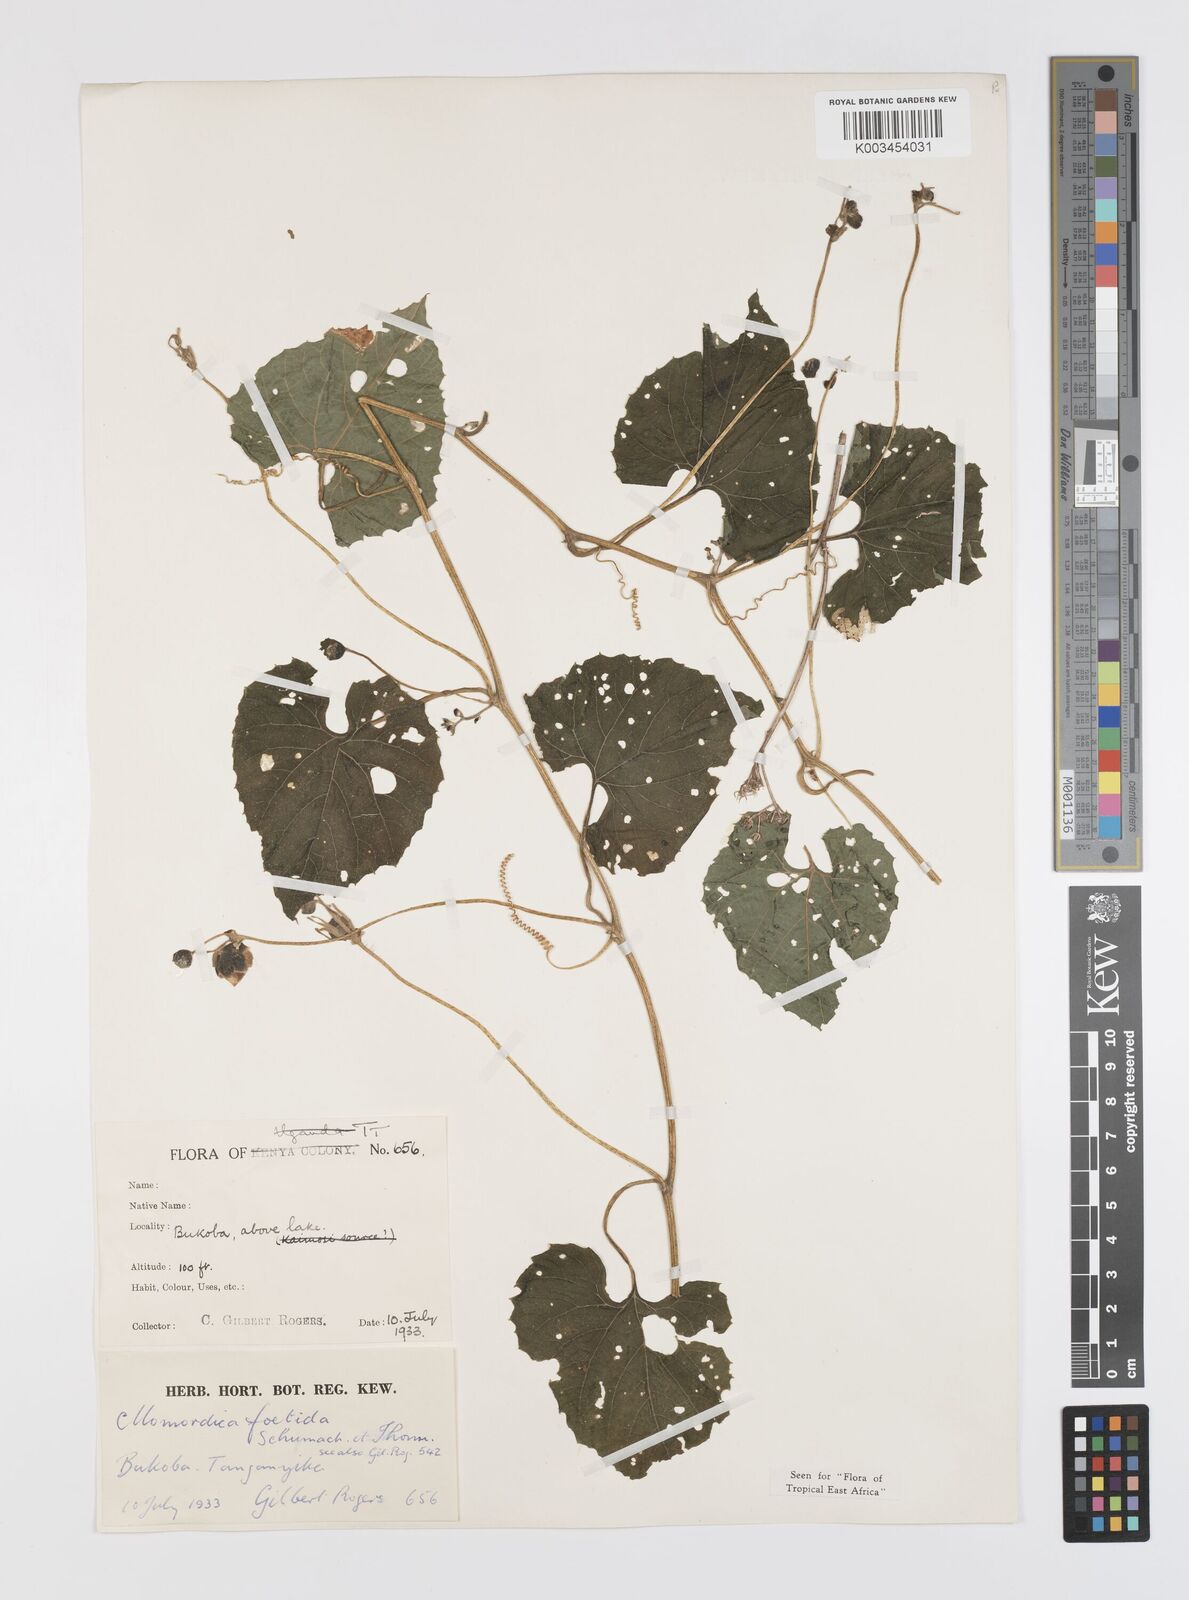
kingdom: Plantae
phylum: Tracheophyta
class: Magnoliopsida
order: Cucurbitales
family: Cucurbitaceae
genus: Momordica
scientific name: Momordica foetida
